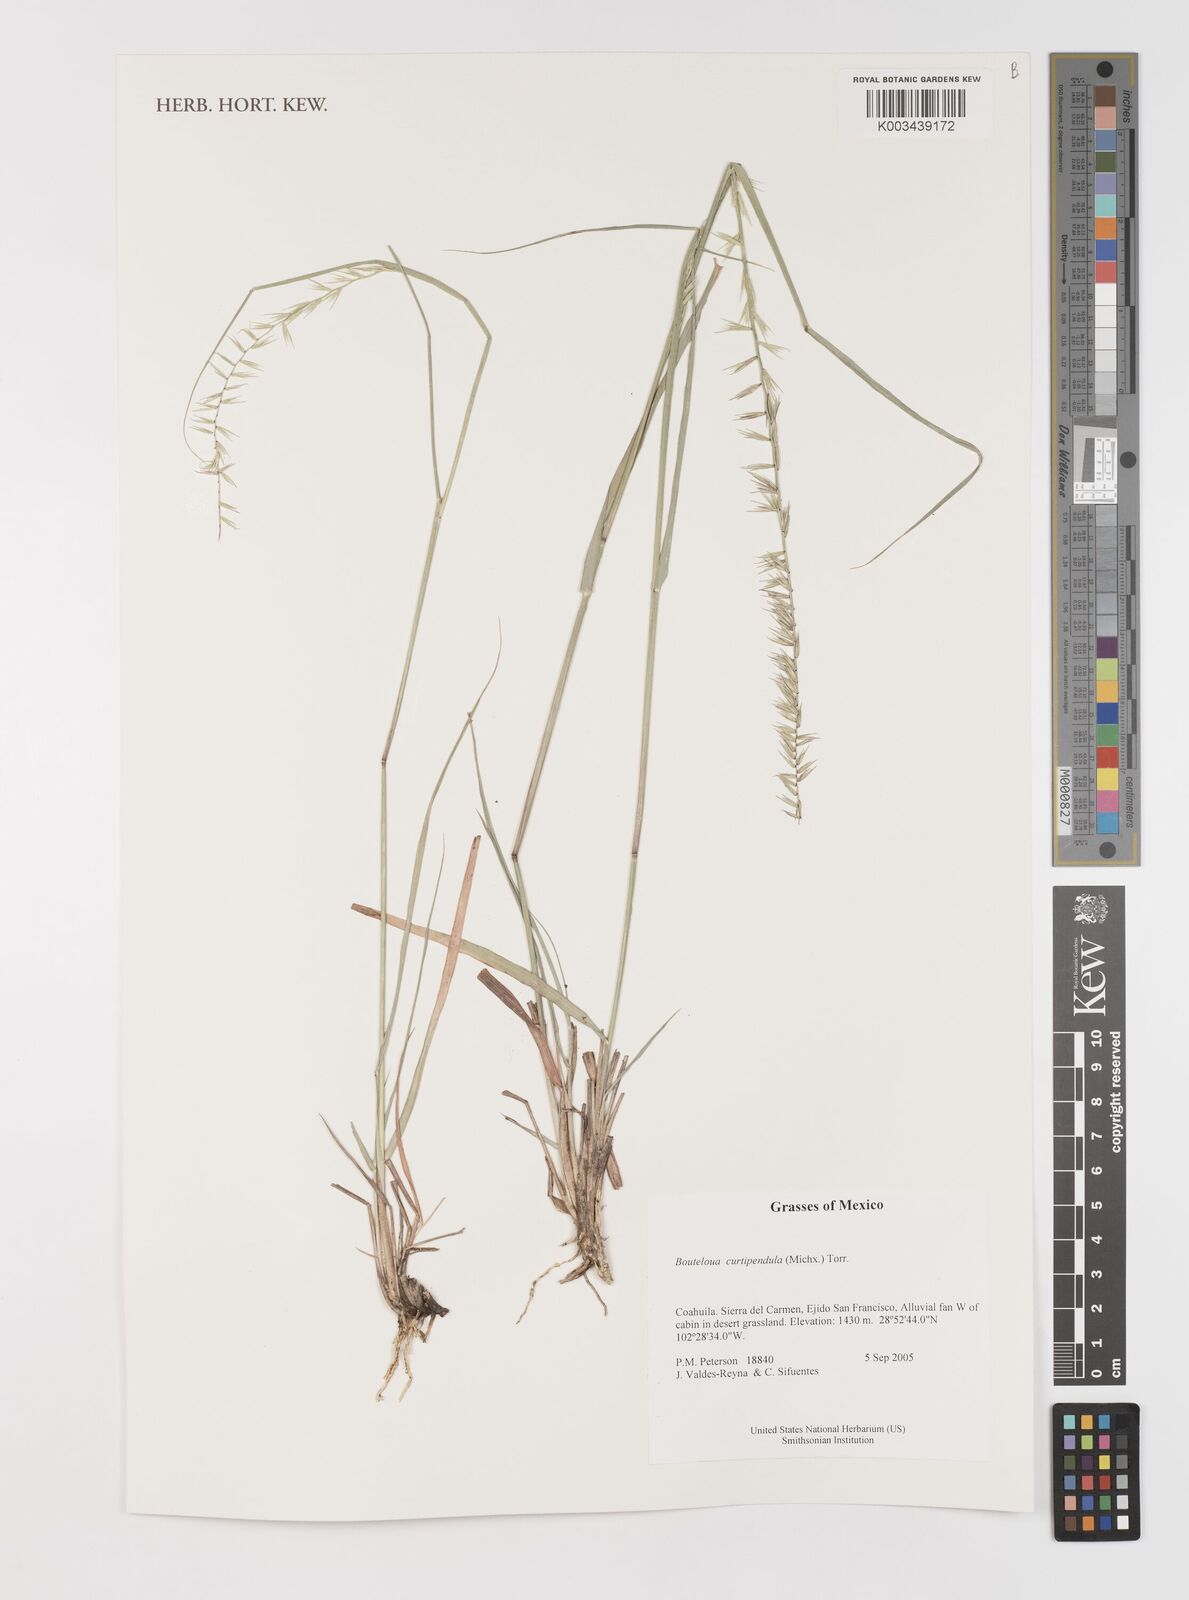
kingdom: Plantae
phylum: Tracheophyta
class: Liliopsida
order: Poales
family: Poaceae
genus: Bouteloua
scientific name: Bouteloua curtipendula
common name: Side-oats grama
